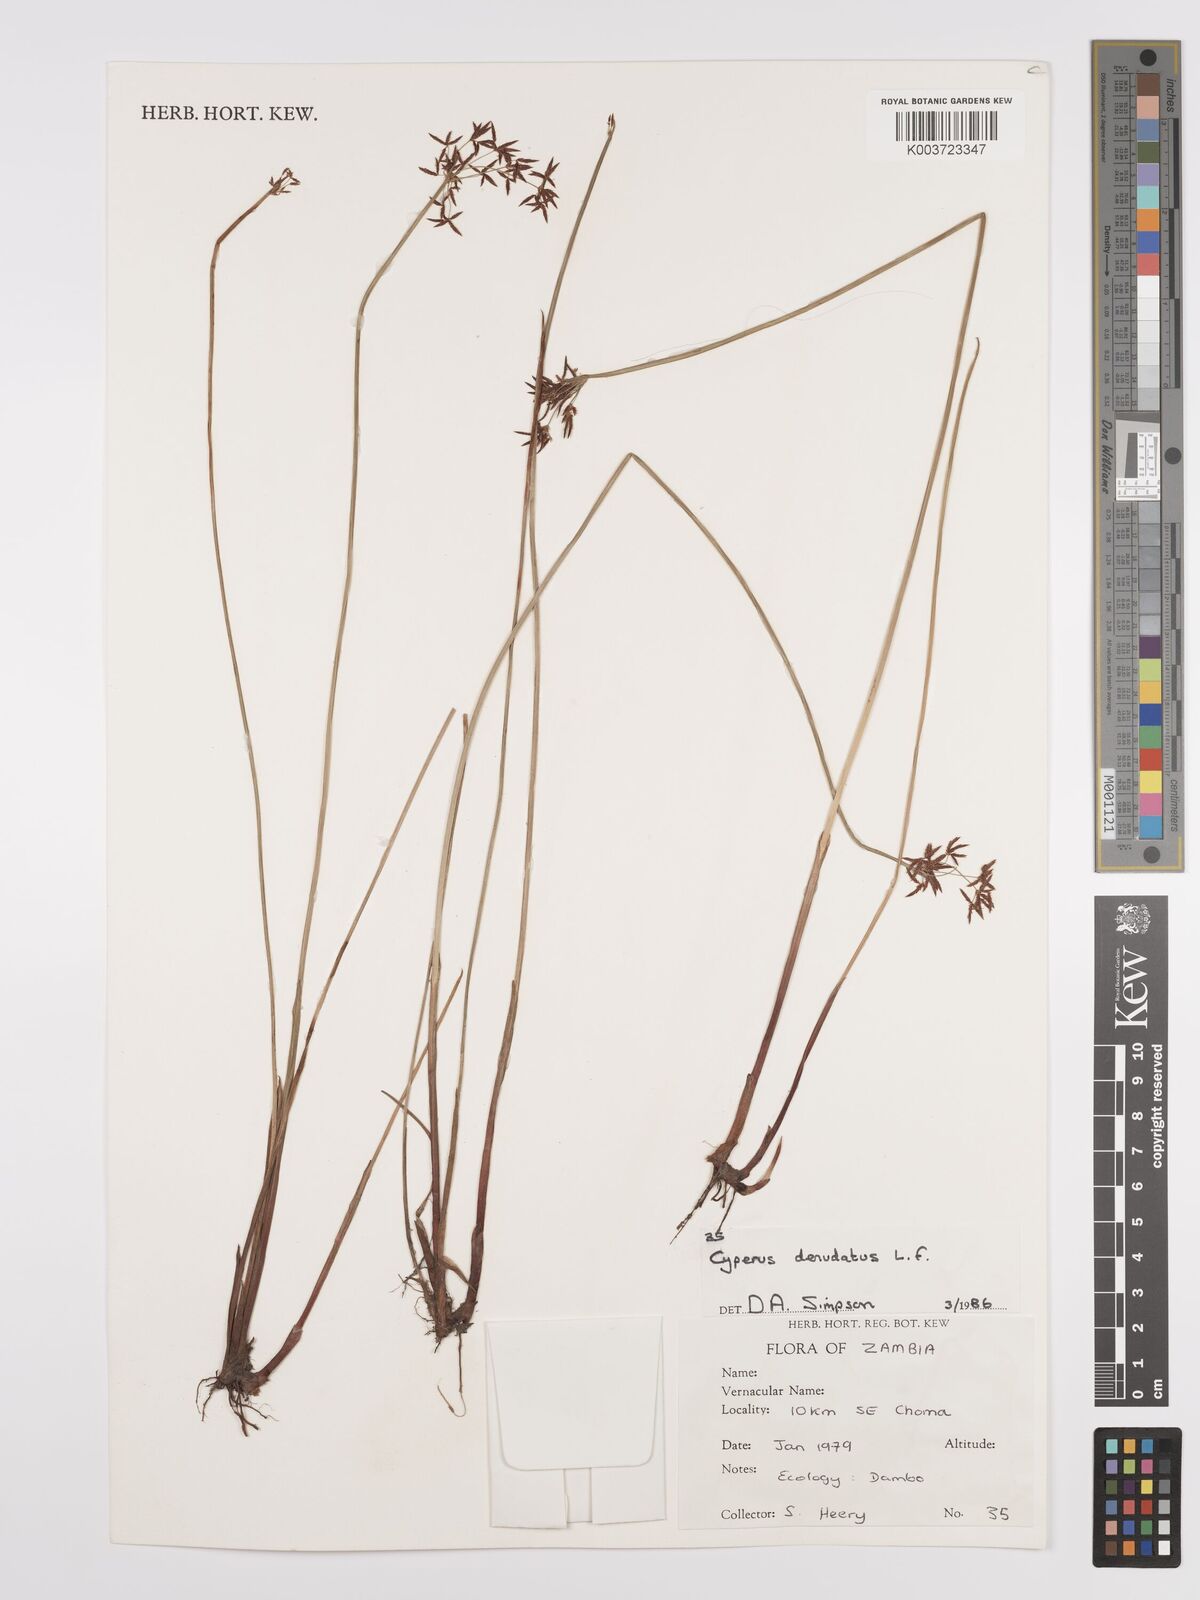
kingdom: Plantae
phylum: Tracheophyta
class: Liliopsida
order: Poales
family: Cyperaceae
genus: Cyperus
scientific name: Cyperus denudatus
